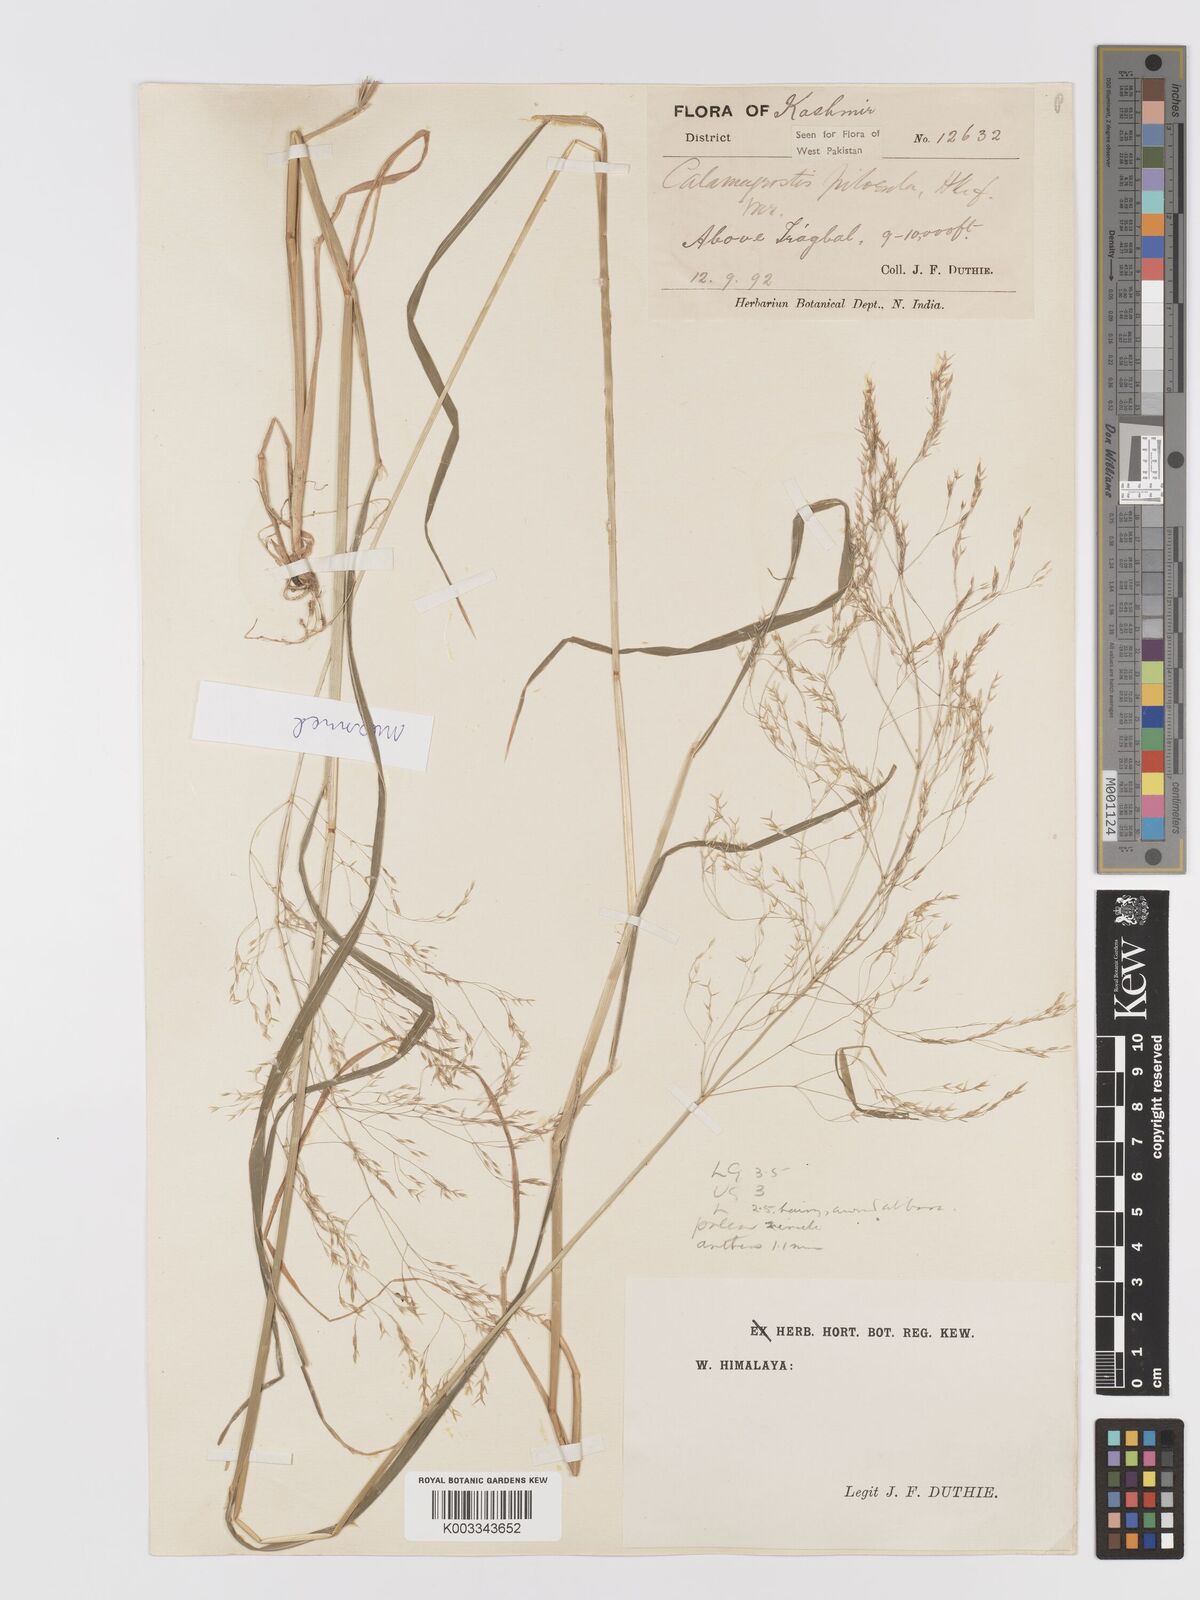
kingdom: Plantae
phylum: Tracheophyta
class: Liliopsida
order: Poales
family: Poaceae
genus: Agrostis
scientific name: Agrostis pilosula
